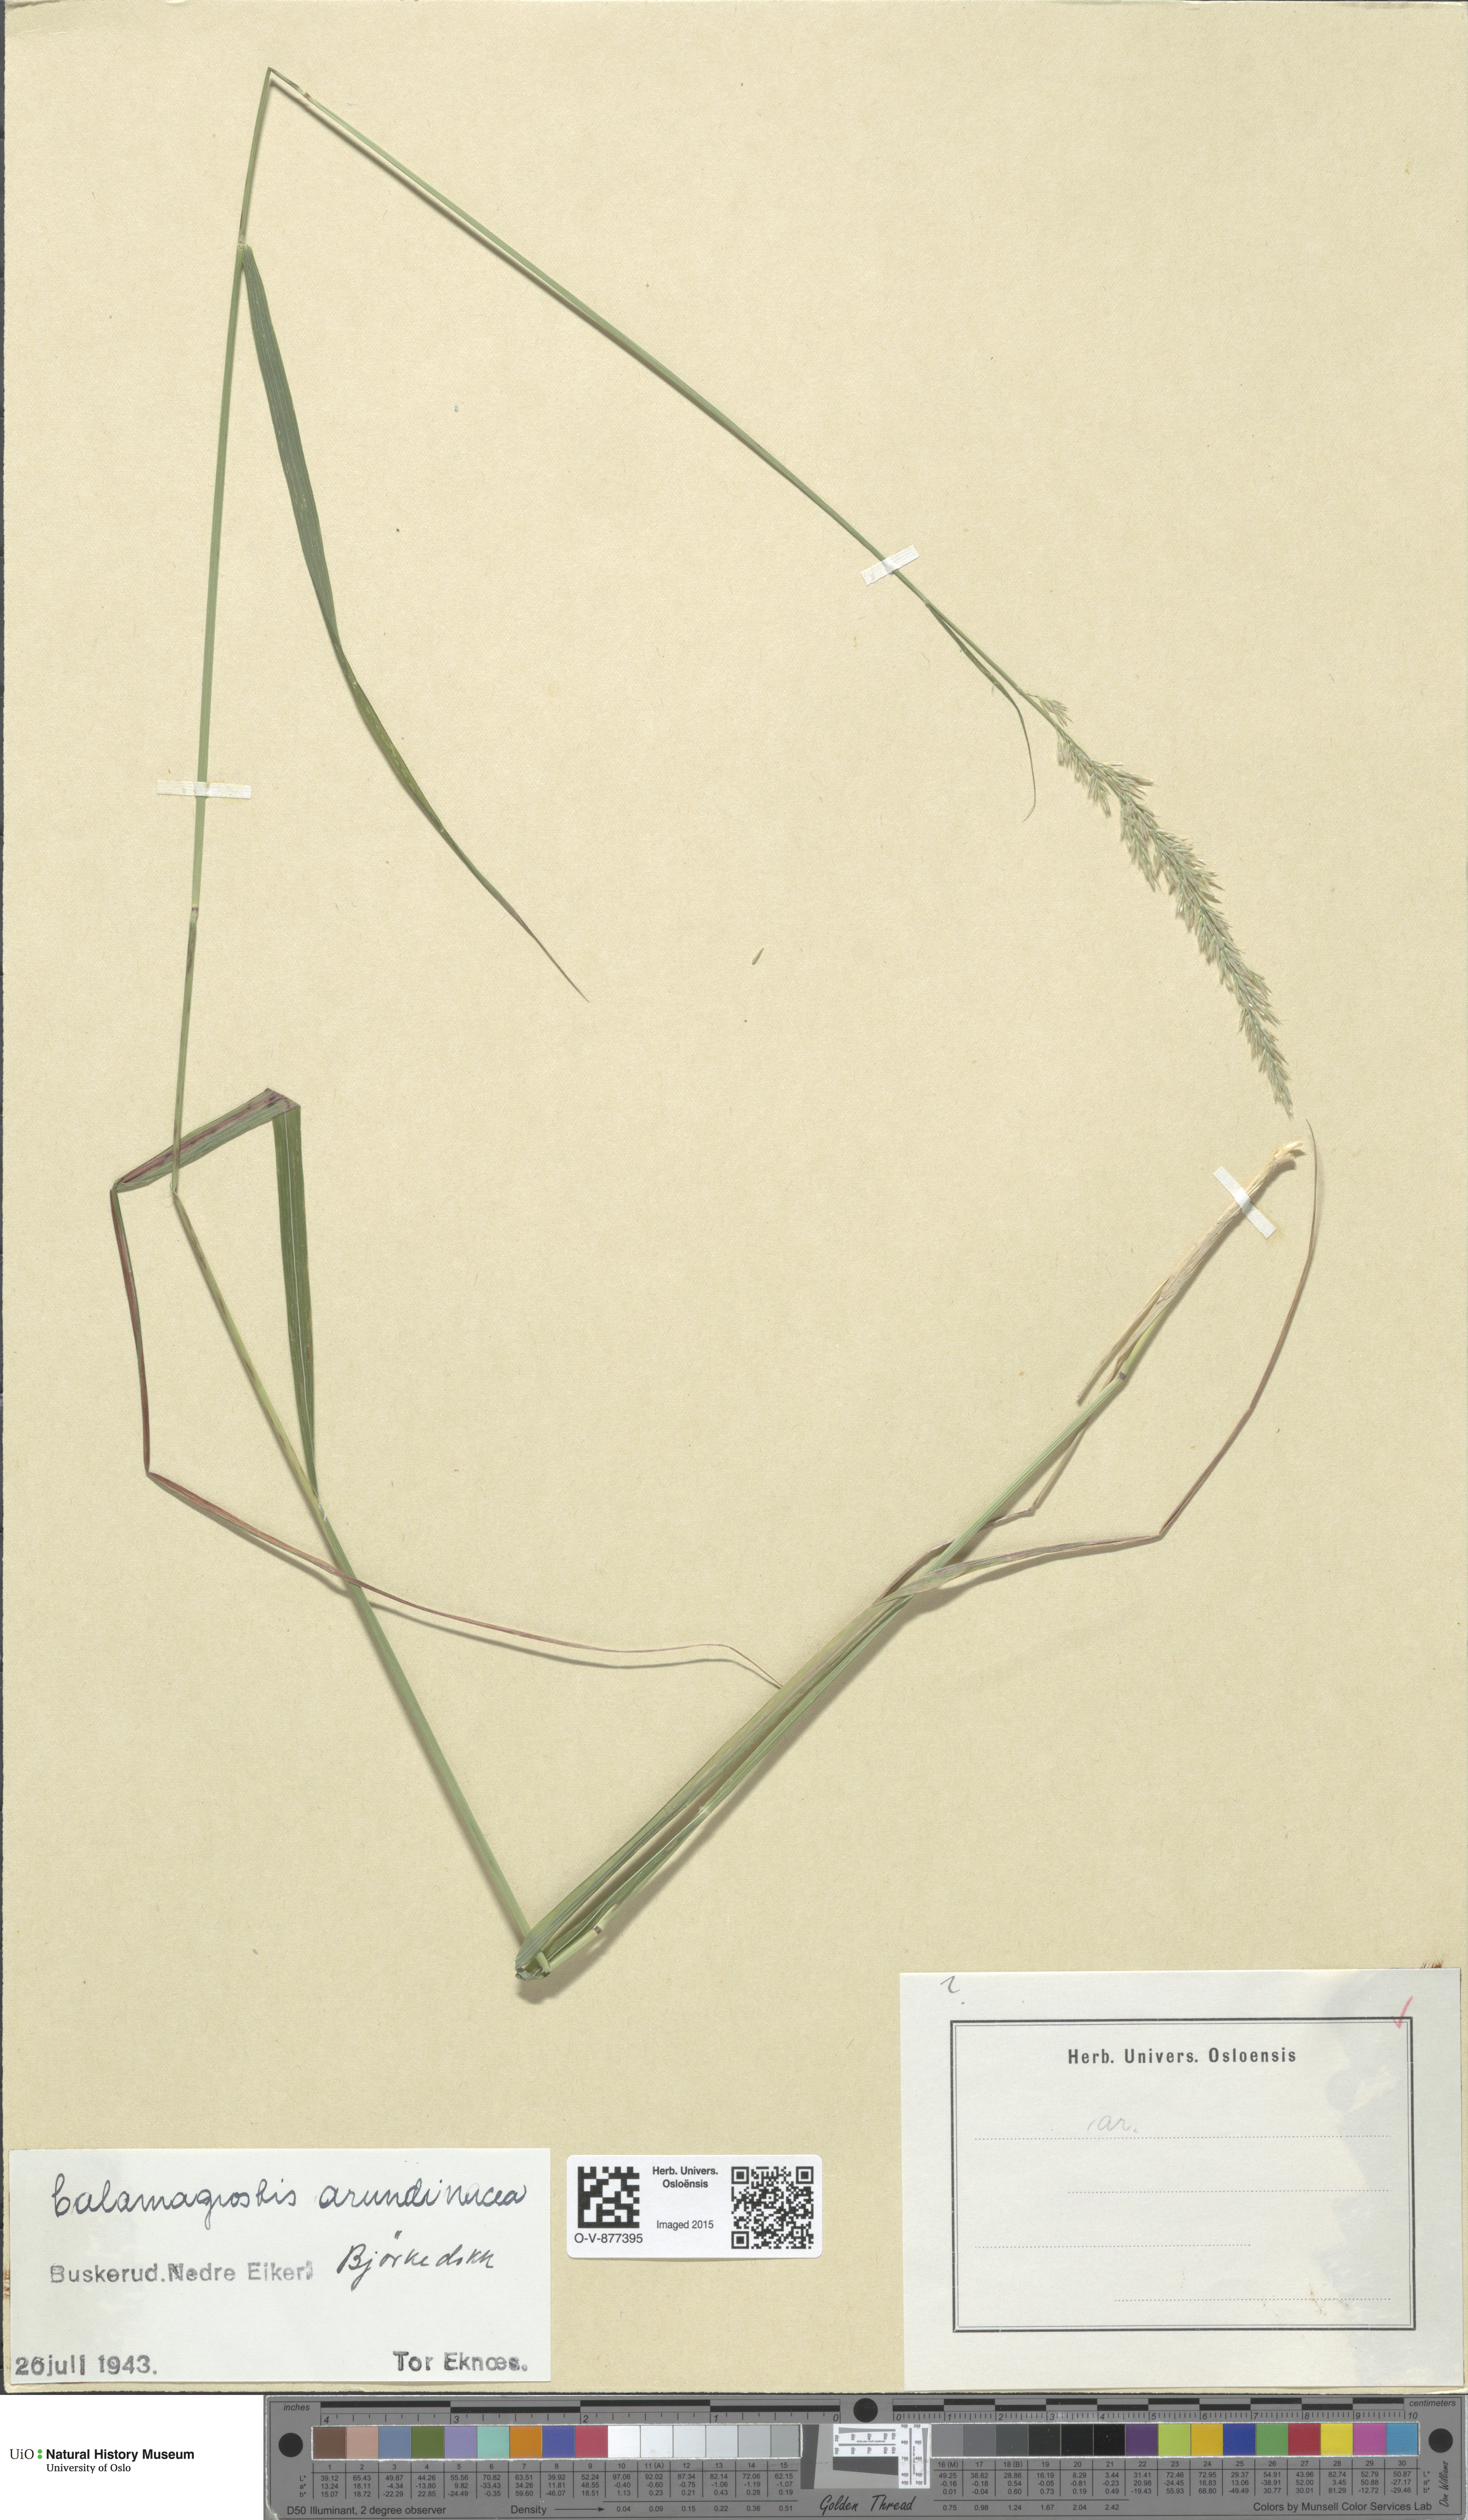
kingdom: Plantae
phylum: Tracheophyta
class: Liliopsida
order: Poales
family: Poaceae
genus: Calamagrostis
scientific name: Calamagrostis arundinacea
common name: Metskastik
